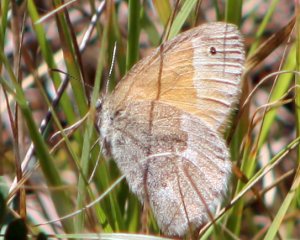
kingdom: Animalia
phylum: Arthropoda
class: Insecta
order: Lepidoptera
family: Nymphalidae
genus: Coenonympha
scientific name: Coenonympha tullia
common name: Large Heath
